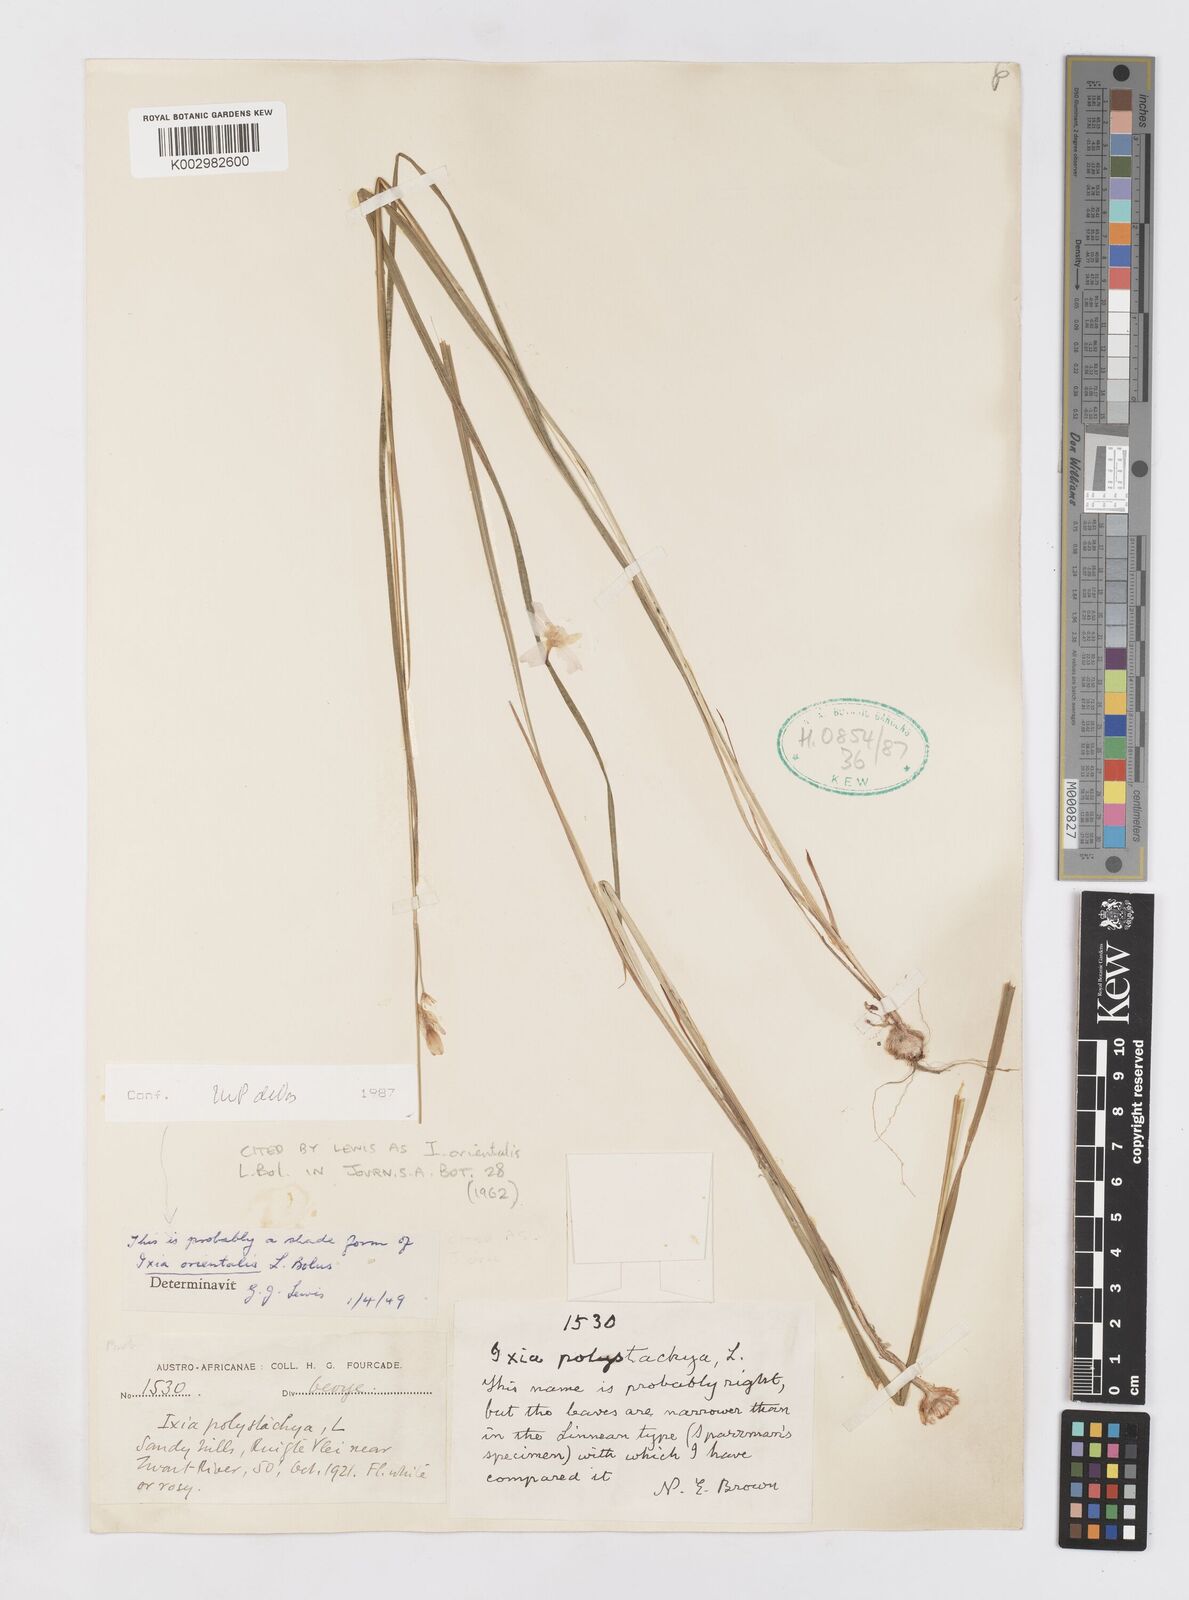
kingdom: Plantae
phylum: Tracheophyta
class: Liliopsida
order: Asparagales
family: Iridaceae
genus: Ixia
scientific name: Ixia orientalis
